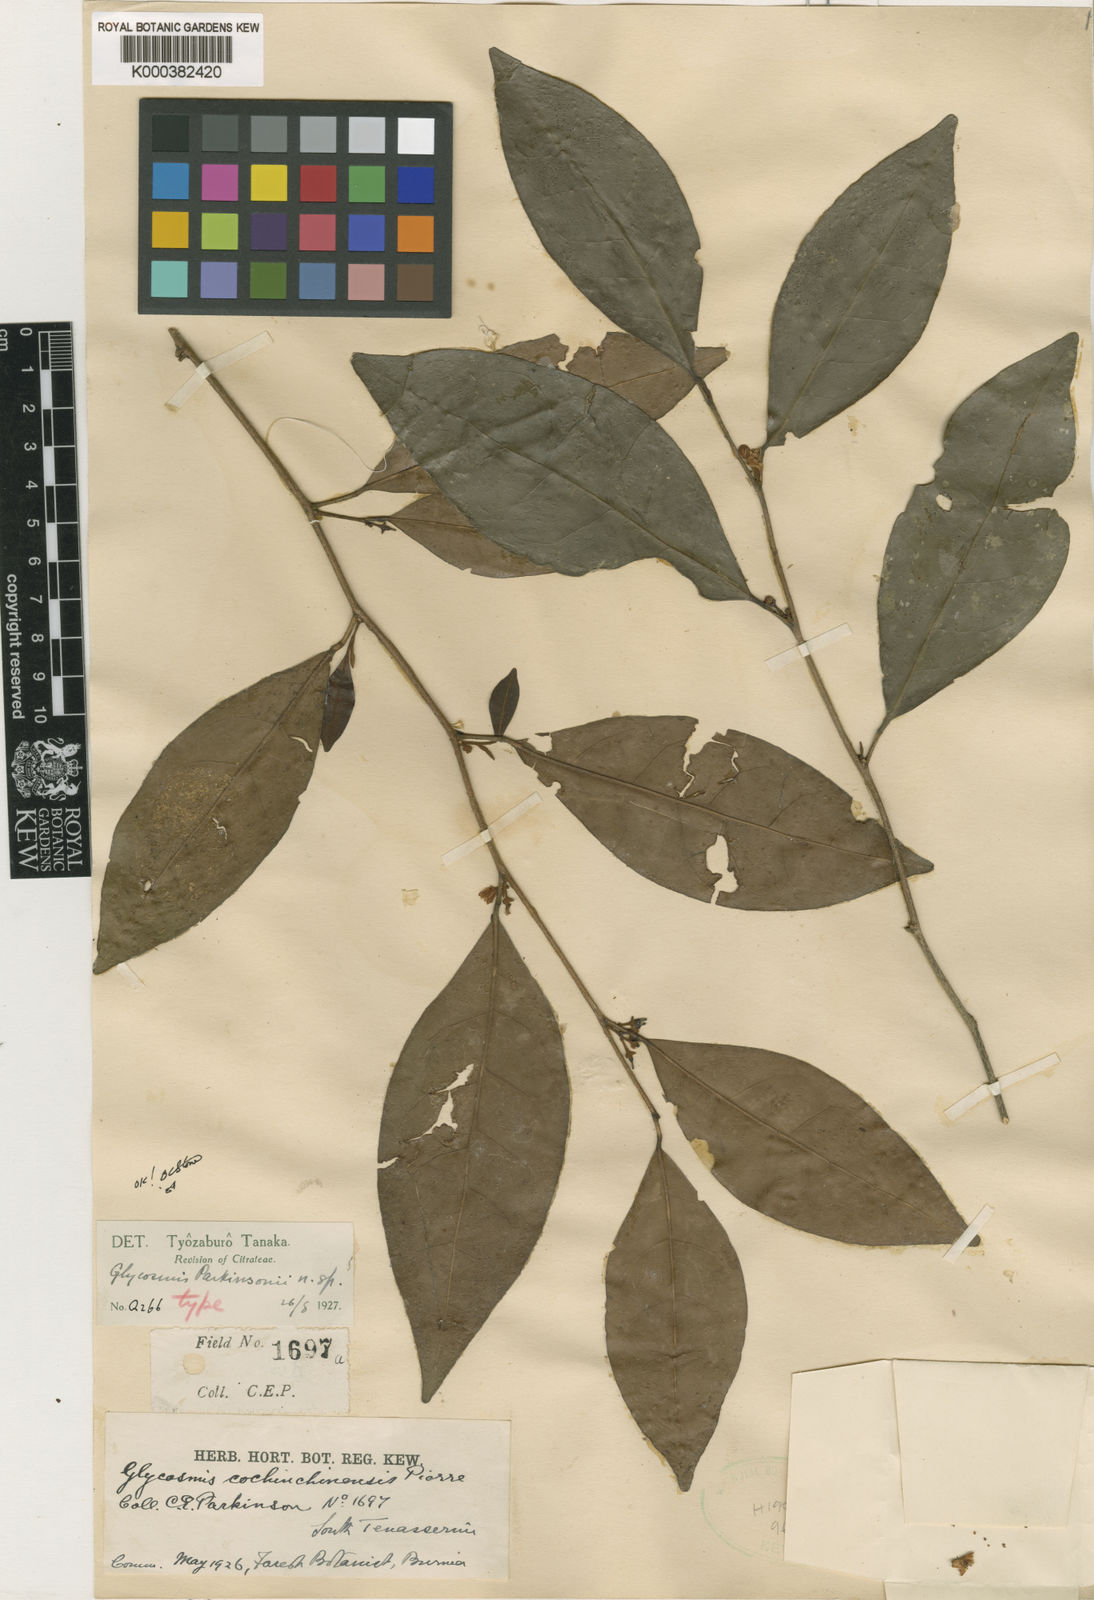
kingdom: Plantae
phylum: Tracheophyta
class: Magnoliopsida
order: Sapindales
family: Rutaceae
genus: Glycosmis
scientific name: Glycosmis parkinsonii
